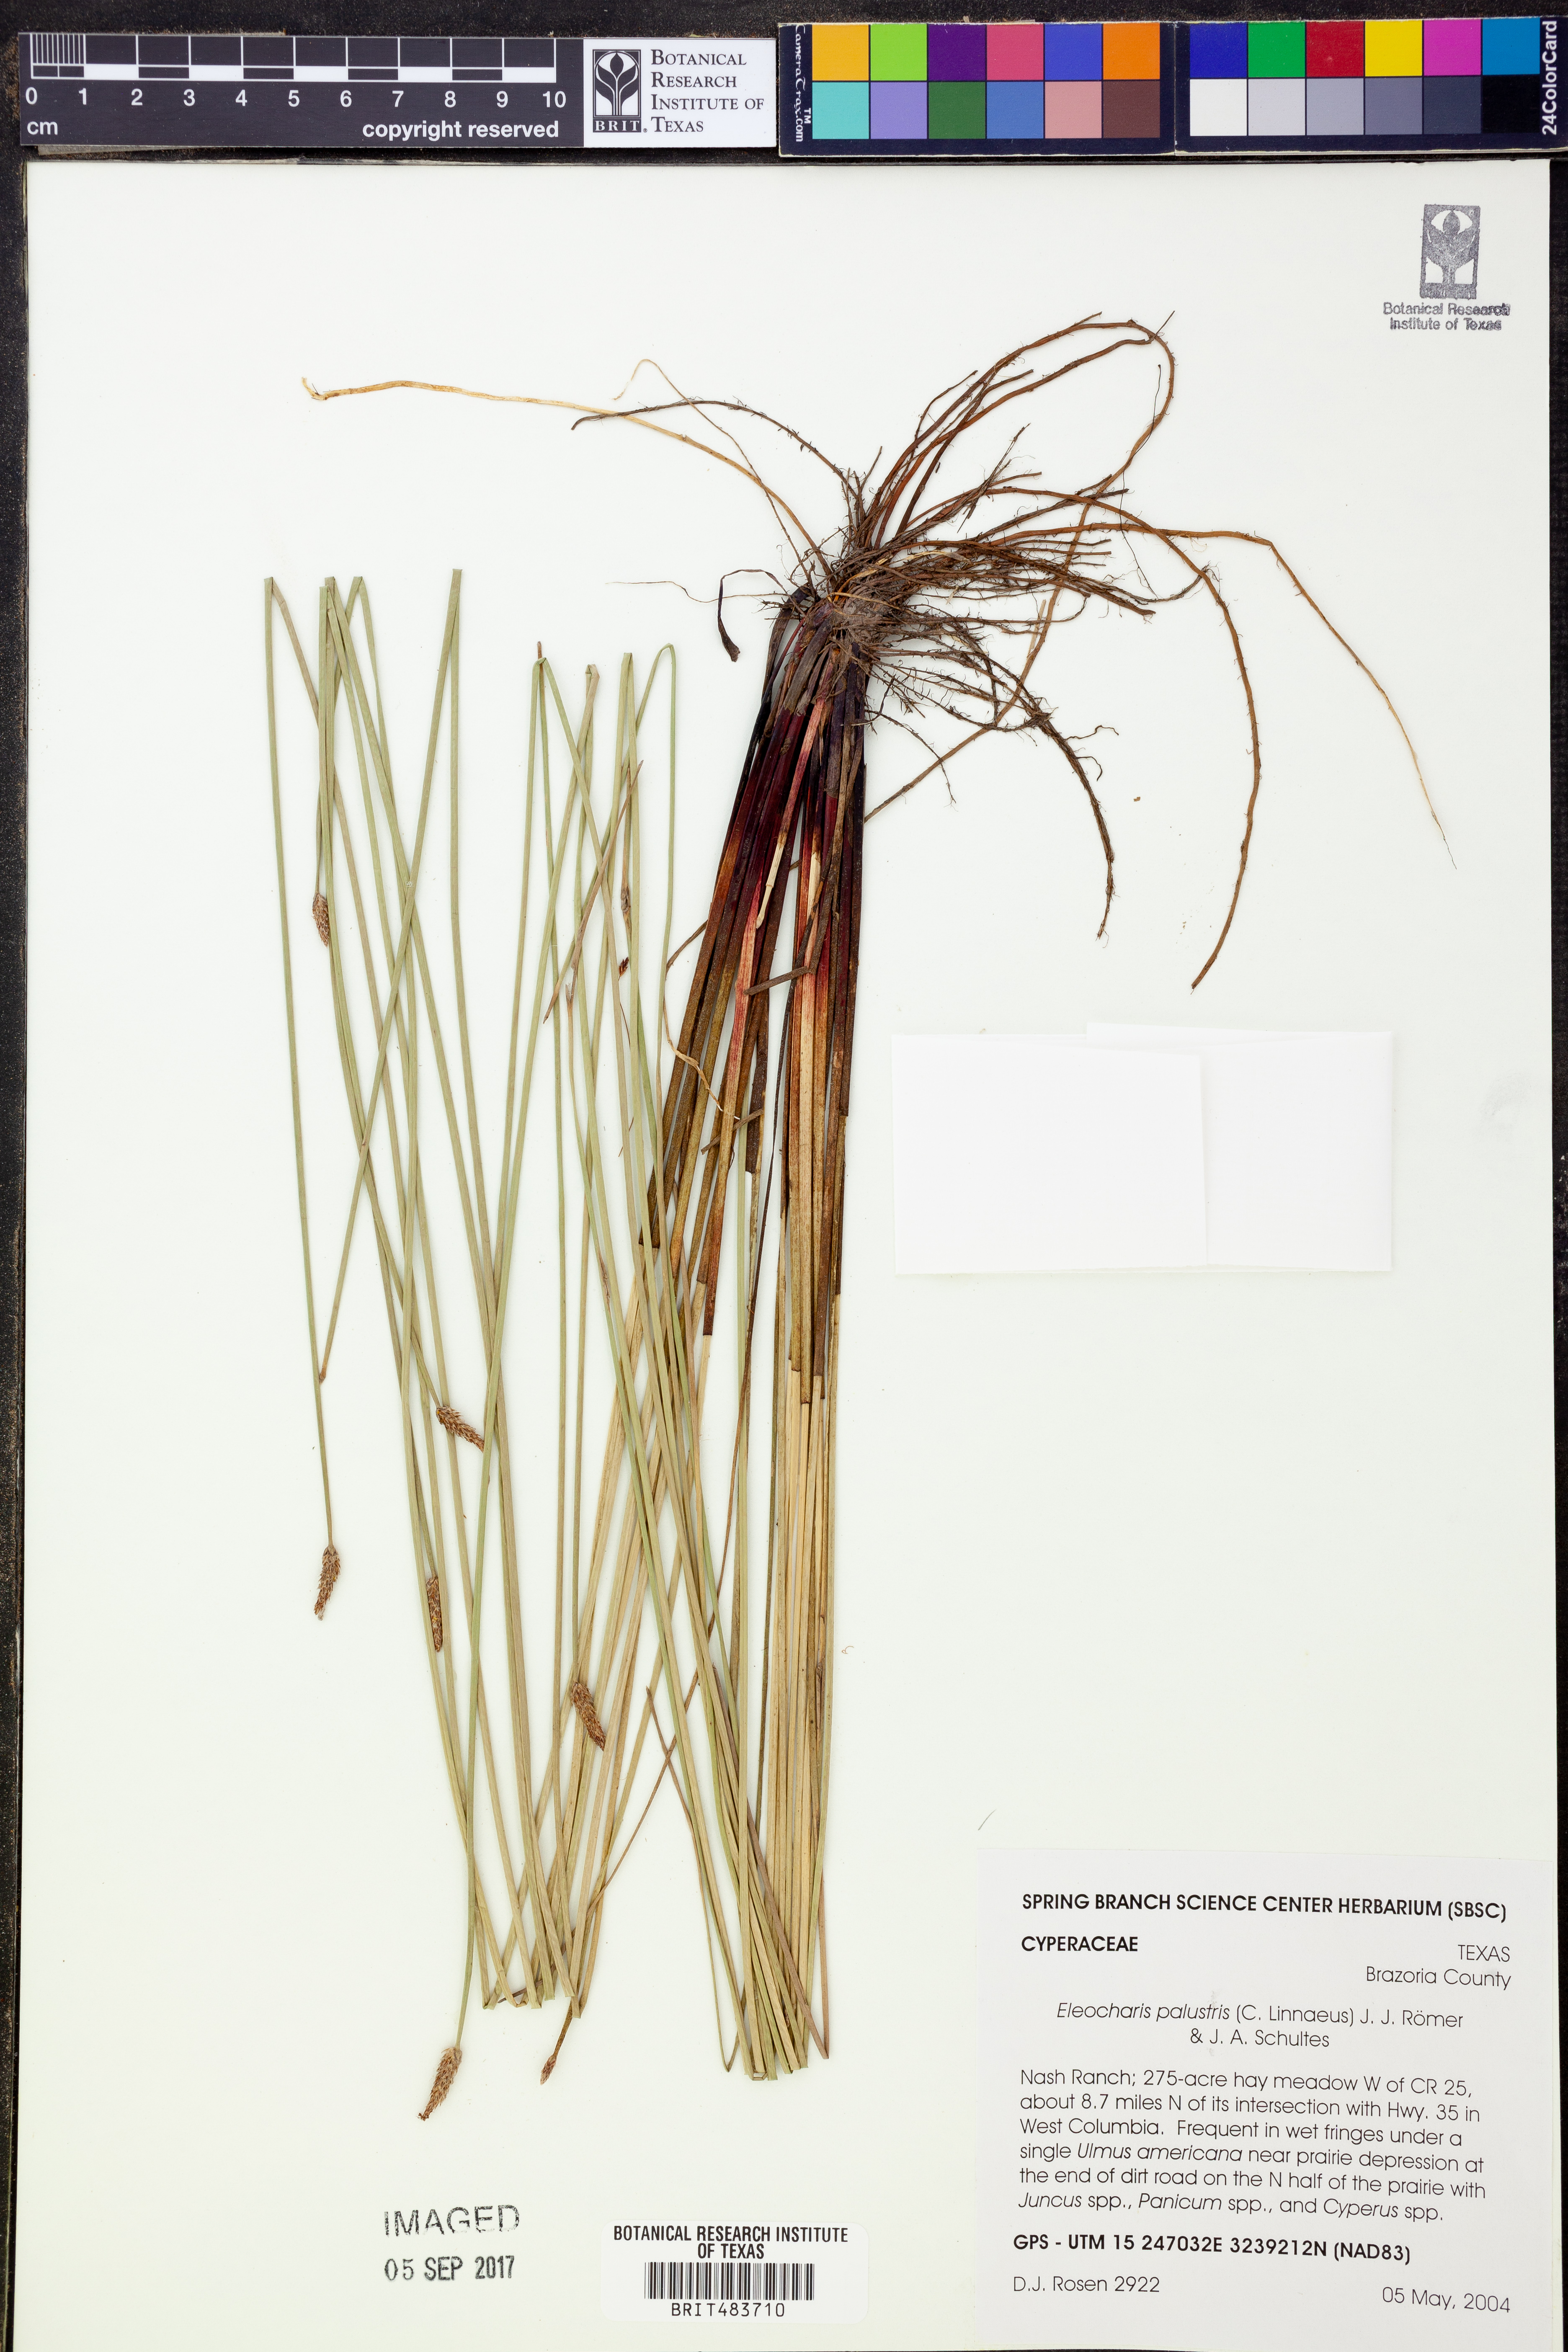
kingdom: Plantae
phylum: Tracheophyta
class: Liliopsida
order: Poales
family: Cyperaceae
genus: Eleocharis
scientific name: Eleocharis palustris
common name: Common spike-rush
